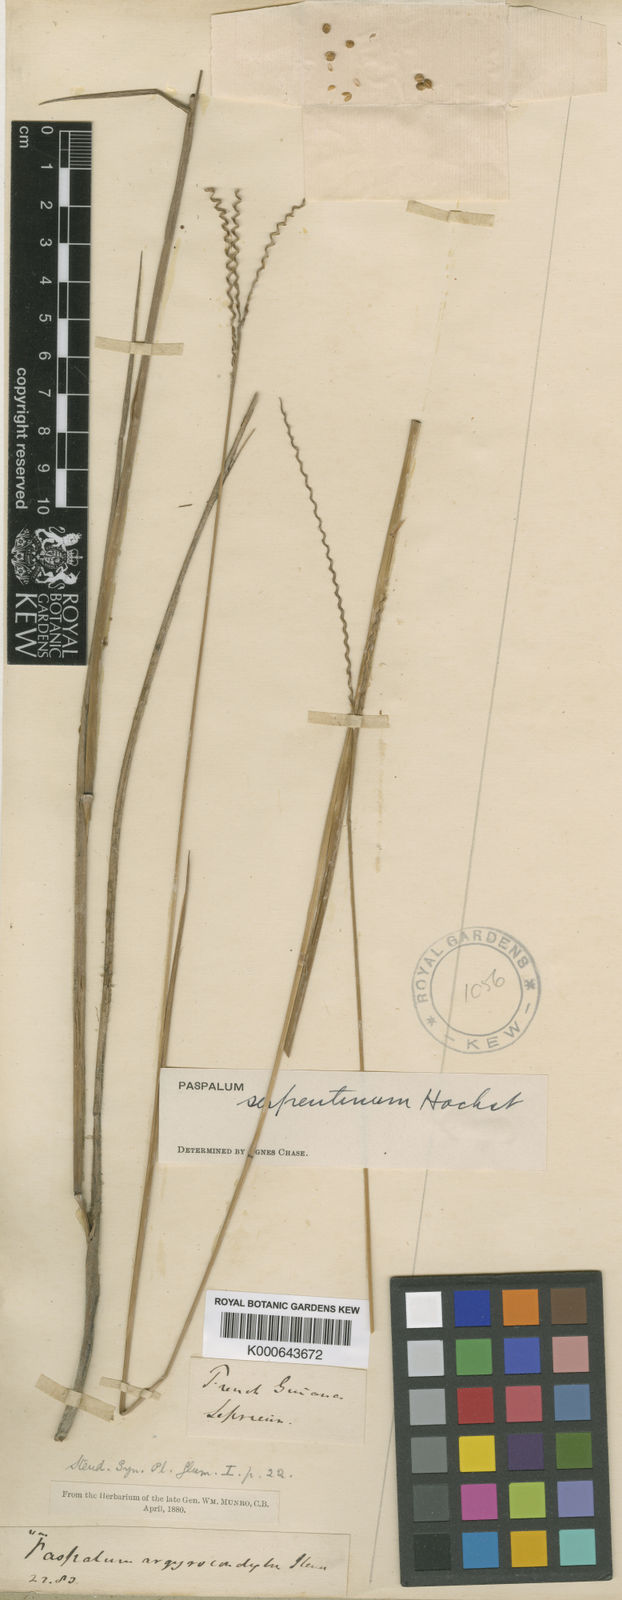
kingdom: Plantae
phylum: Tracheophyta
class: Liliopsida
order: Poales
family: Poaceae
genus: Paspalum
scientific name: Paspalum serpentinum
